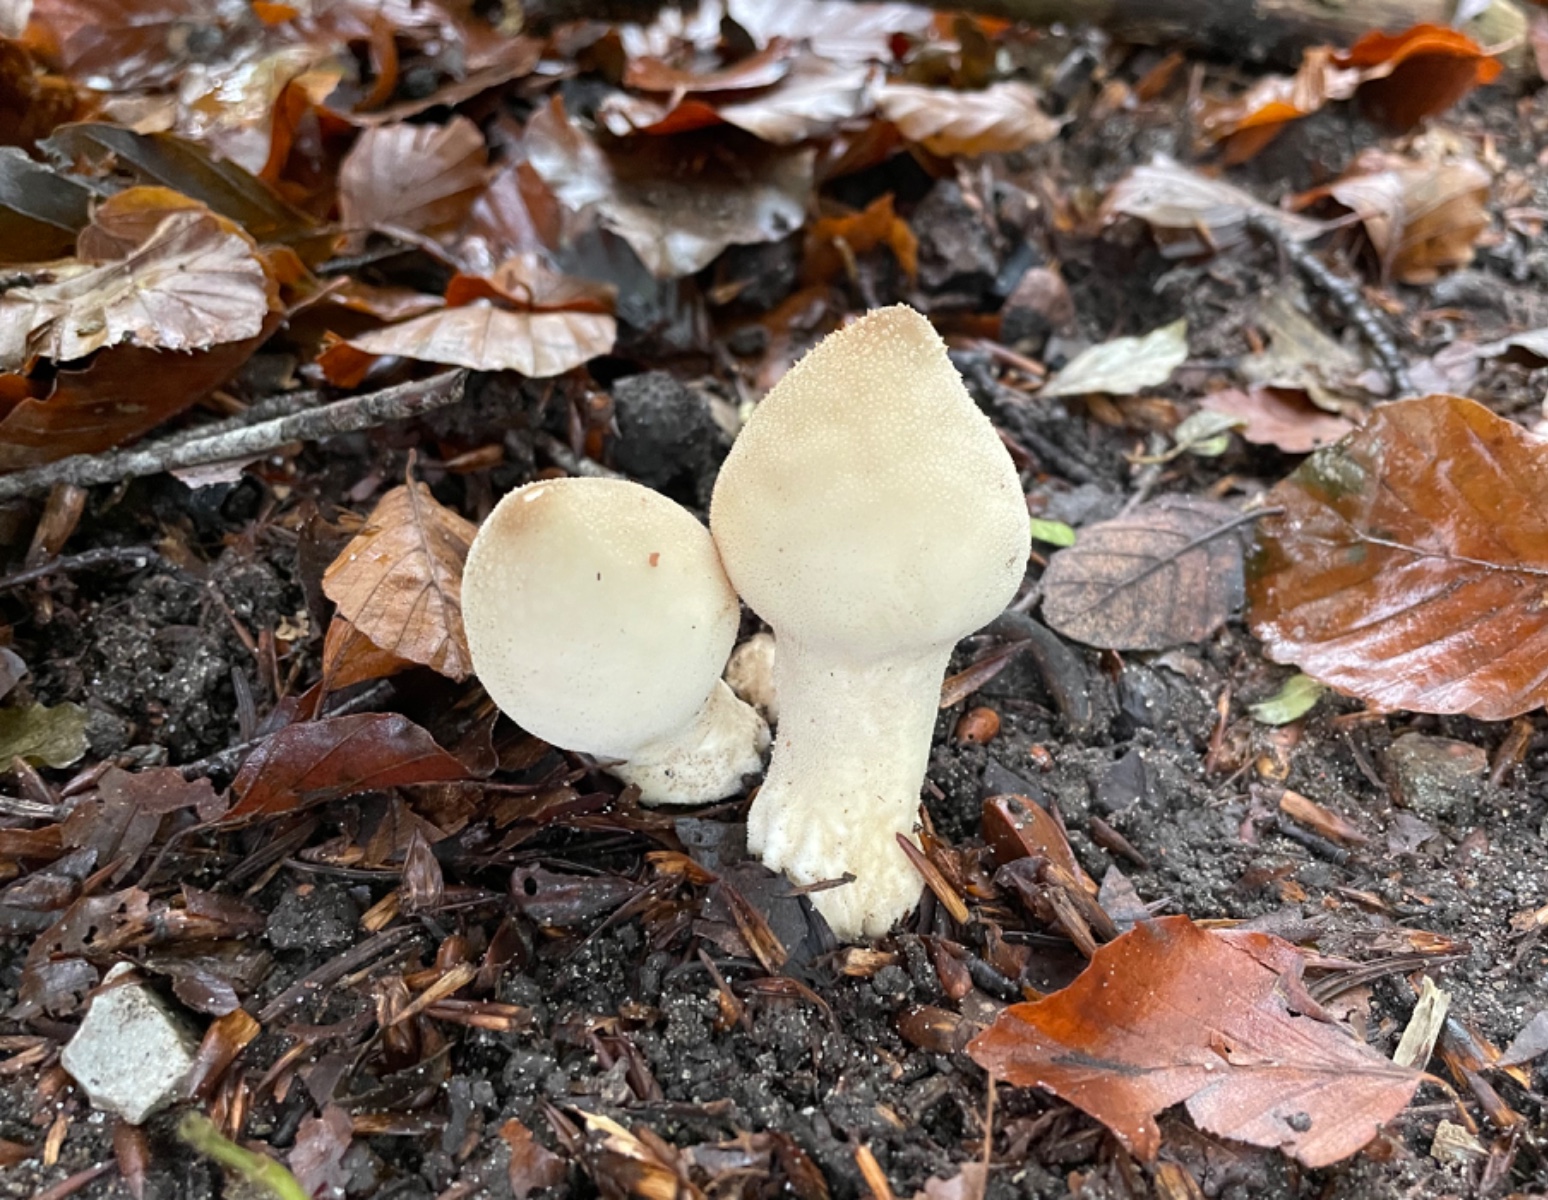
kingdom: Fungi
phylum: Basidiomycota
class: Agaricomycetes
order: Agaricales
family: Lycoperdaceae
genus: Apioperdon
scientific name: Apioperdon pyriforme
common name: pære-støvbold
